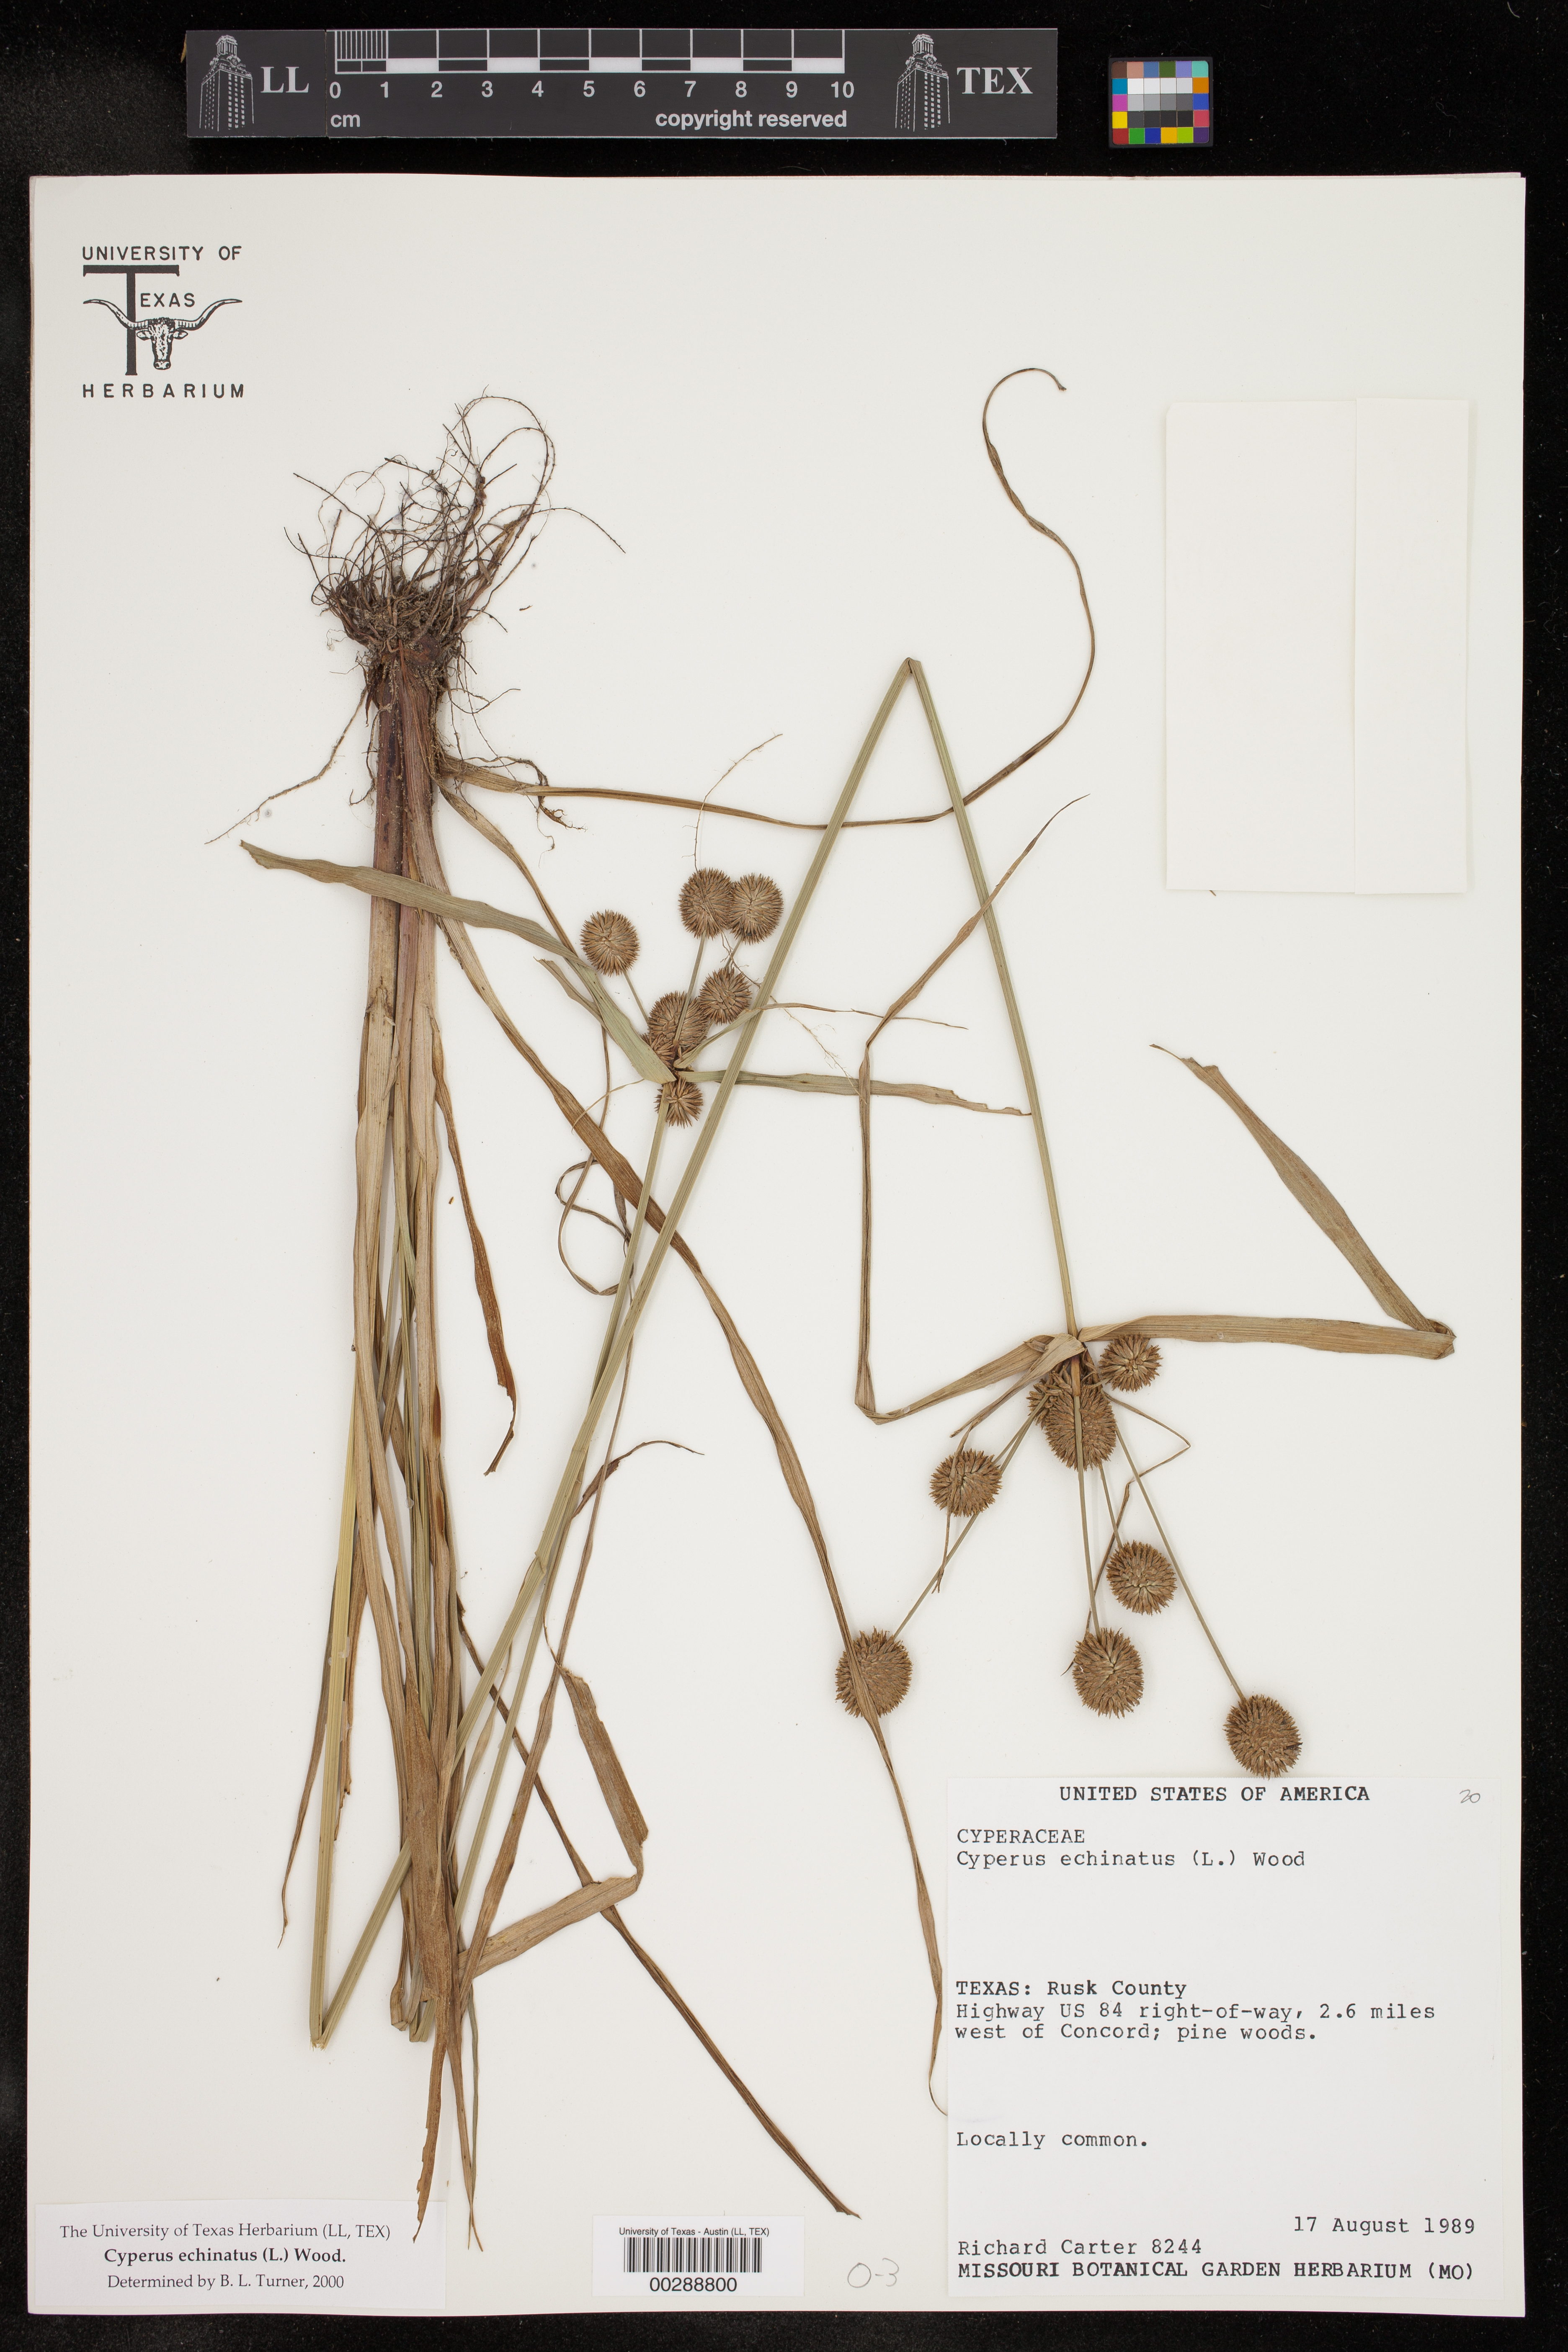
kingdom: Plantae
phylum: Tracheophyta
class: Liliopsida
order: Poales
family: Cyperaceae
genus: Cyperus
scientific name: Cyperus echinatus
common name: Teasel sedge
